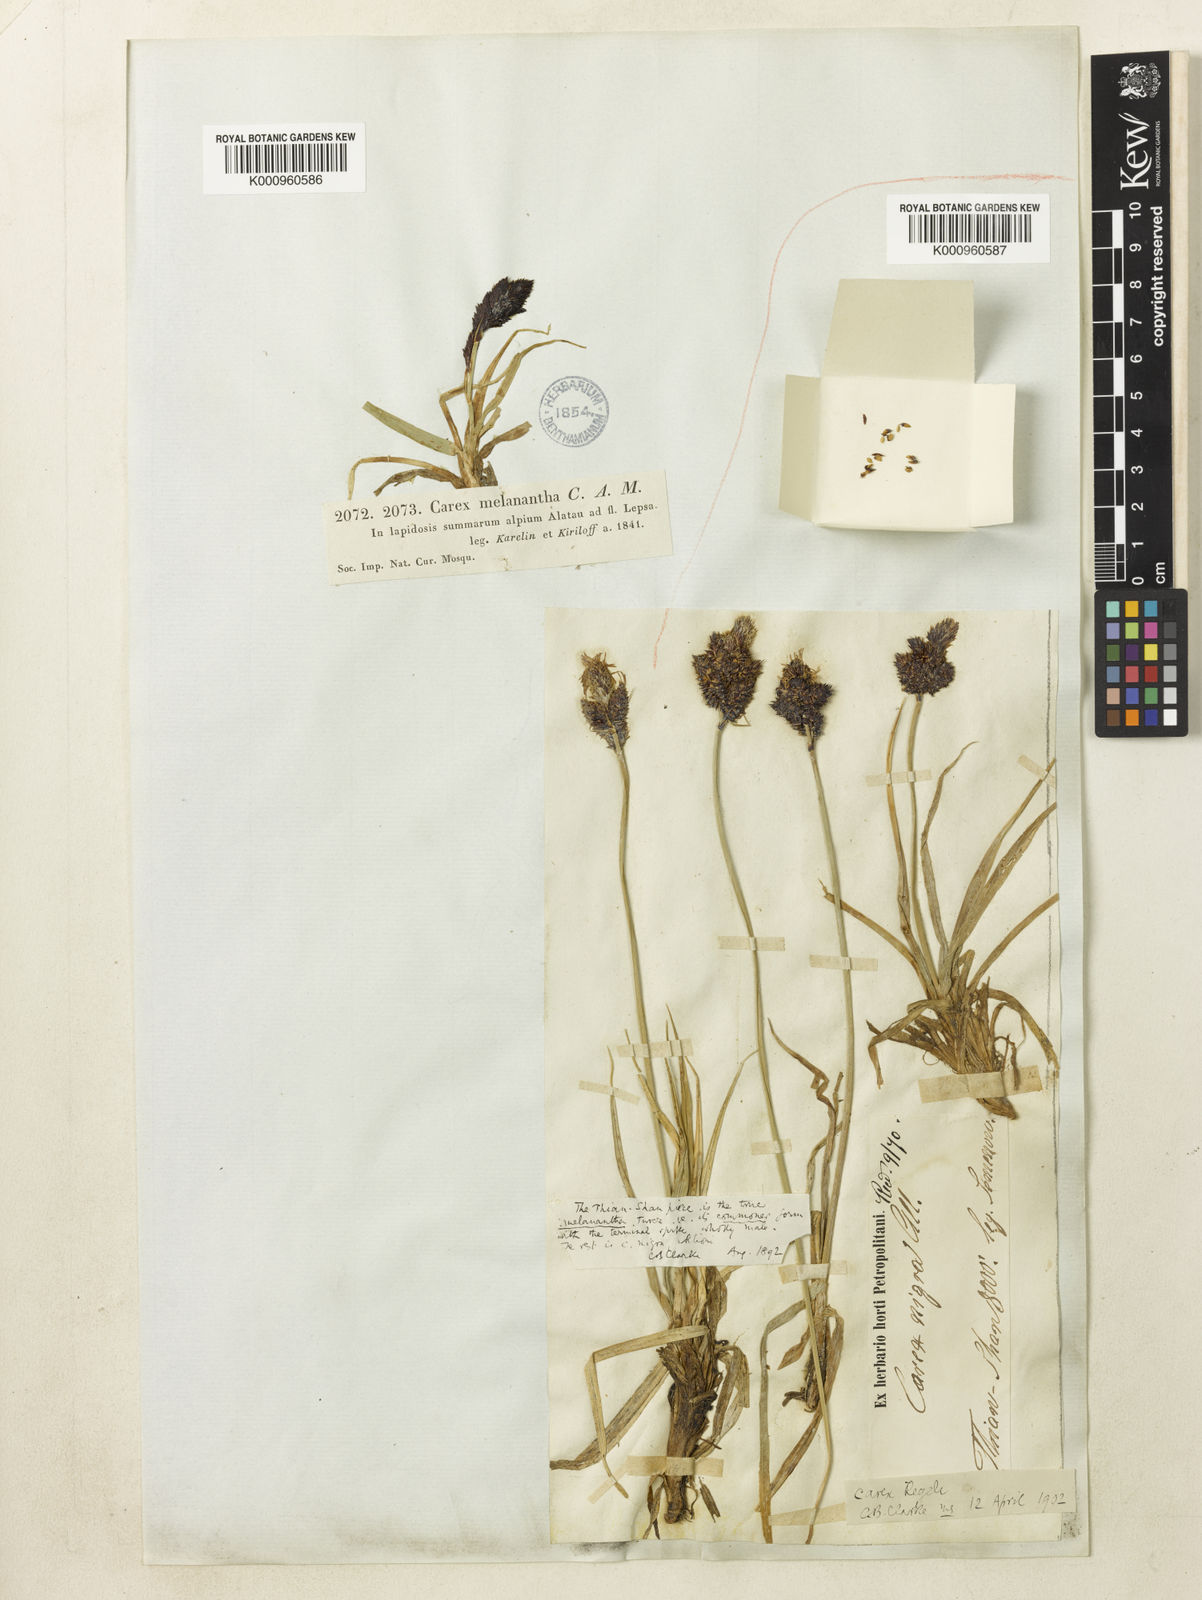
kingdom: Plantae
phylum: Tracheophyta
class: Liliopsida
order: Poales
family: Cyperaceae
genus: Carex
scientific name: Carex melanantha
